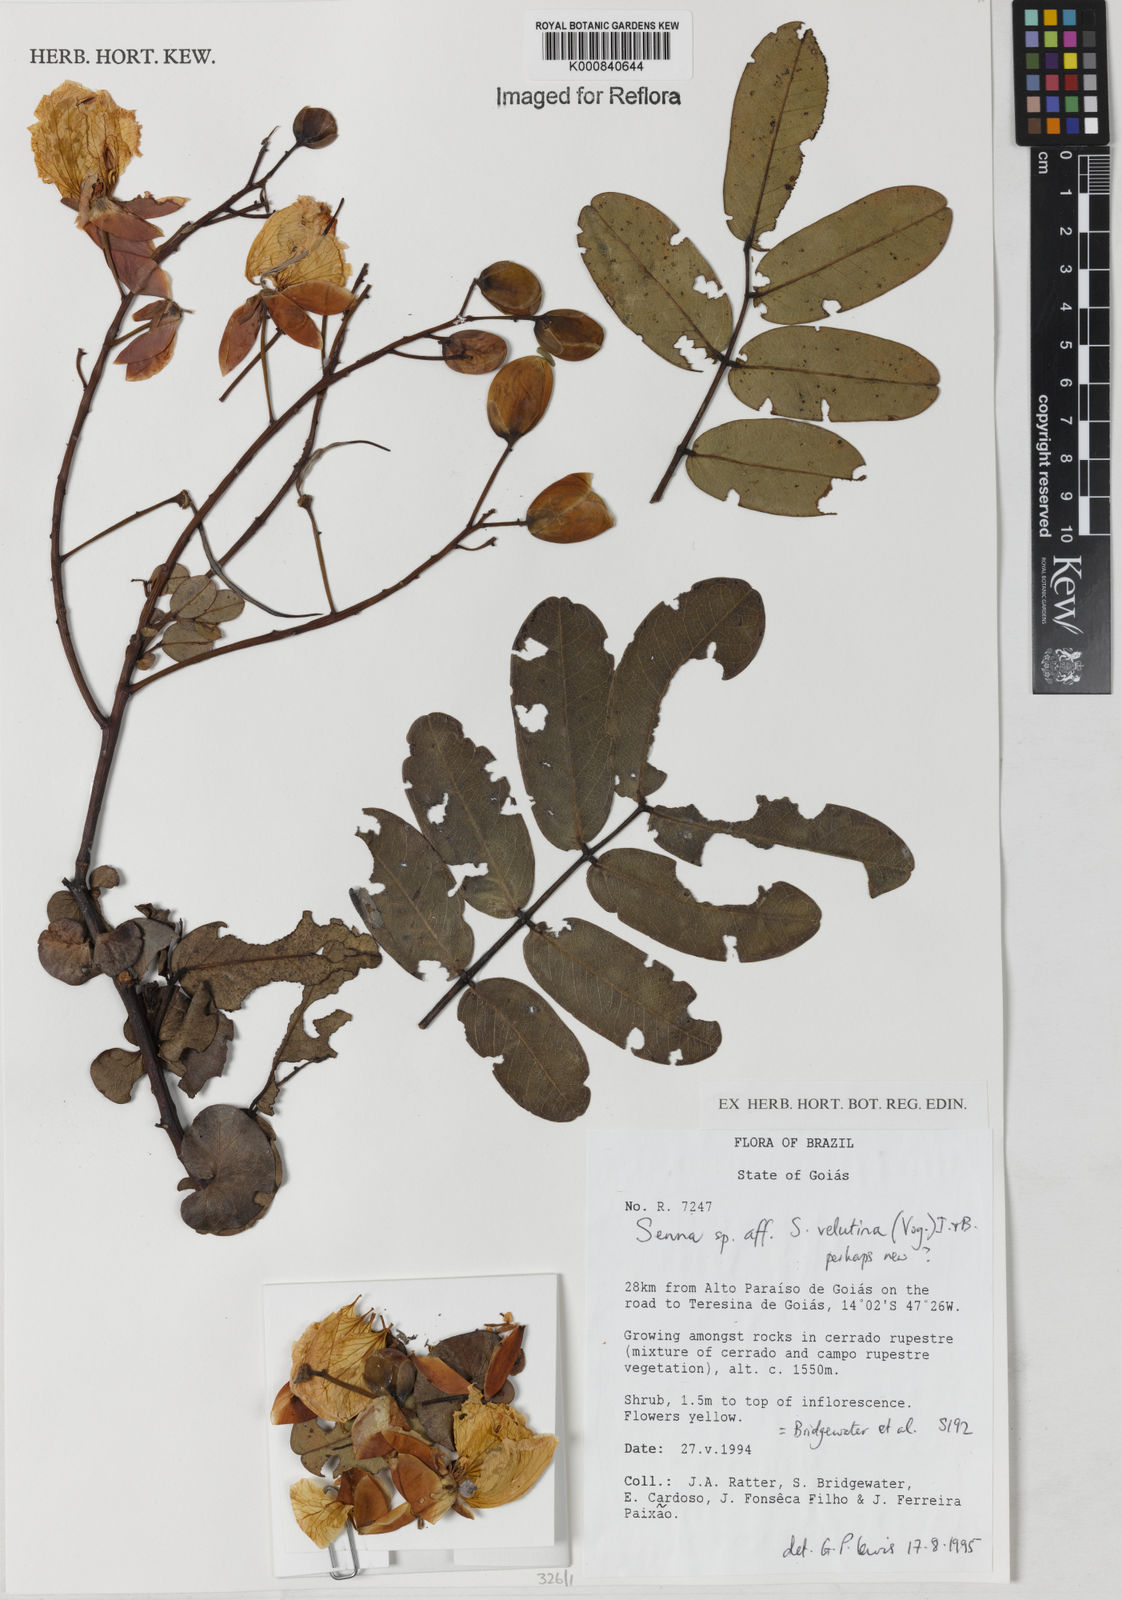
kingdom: Plantae
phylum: Tracheophyta
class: Magnoliopsida
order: Fabales
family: Fabaceae
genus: Senna
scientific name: Senna velutina
